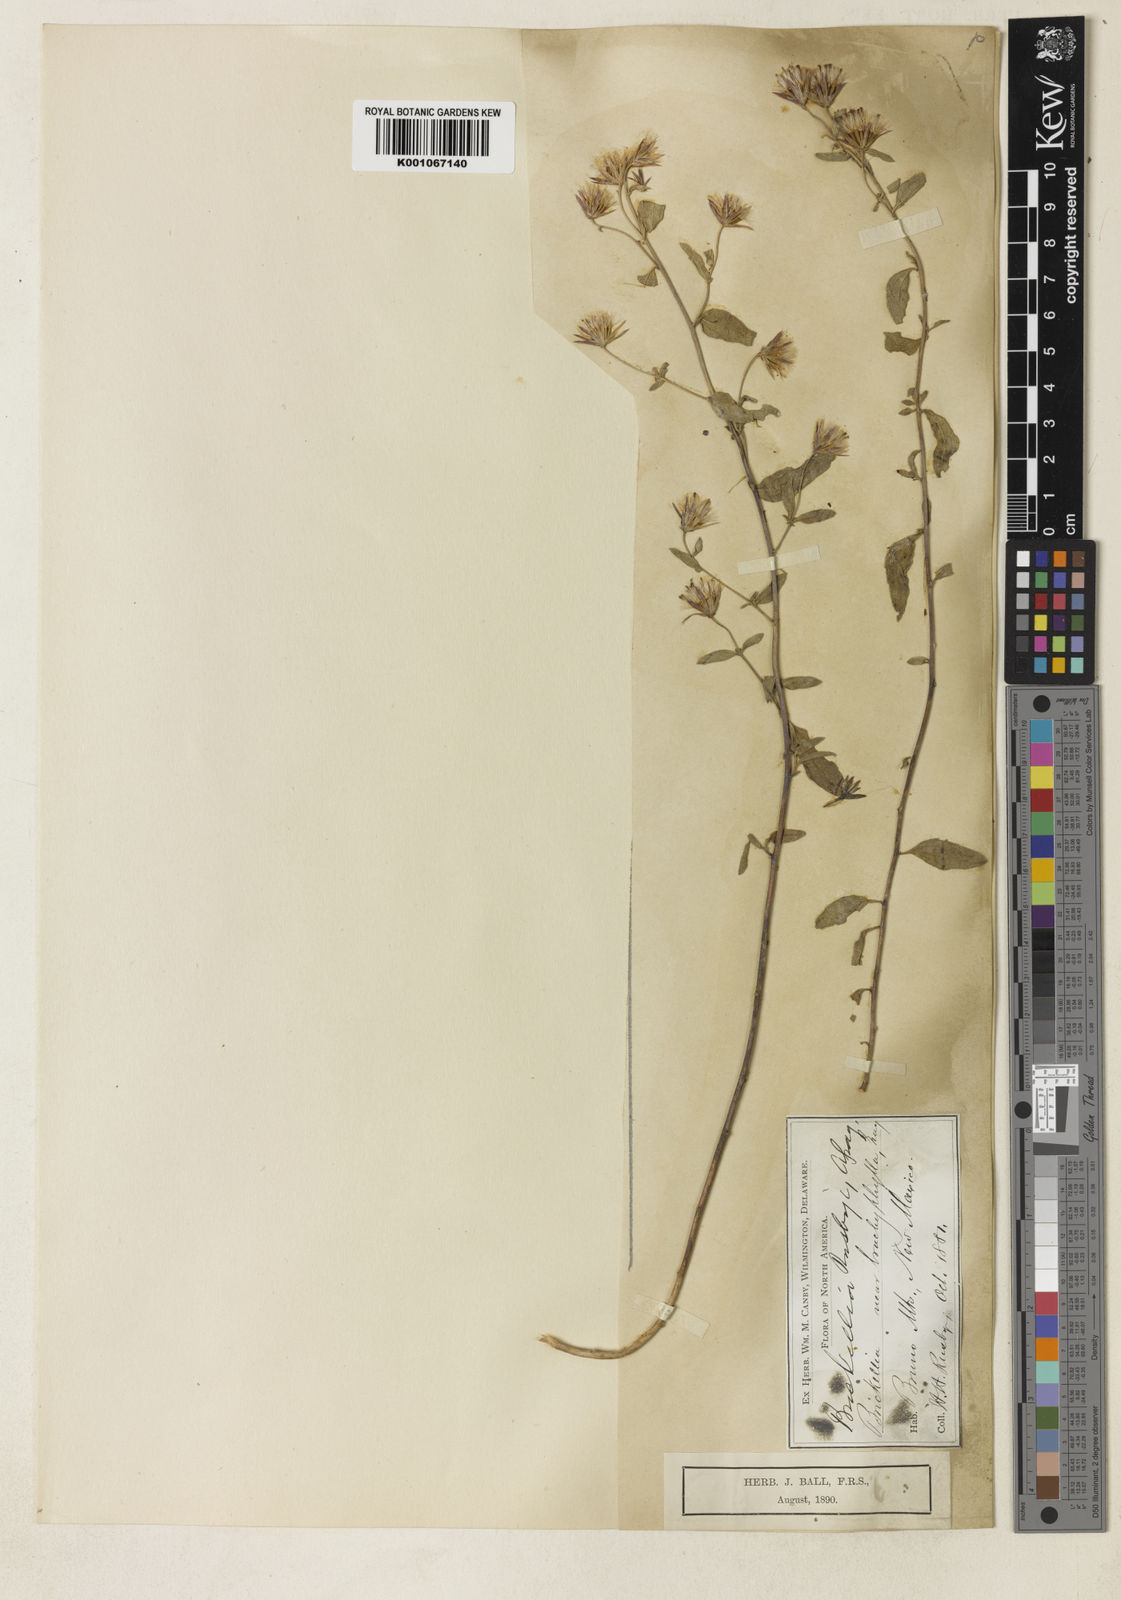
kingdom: Plantae
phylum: Tracheophyta
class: Magnoliopsida
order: Asterales
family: Asteraceae
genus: Brickellia
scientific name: Brickellia brachyphylla
